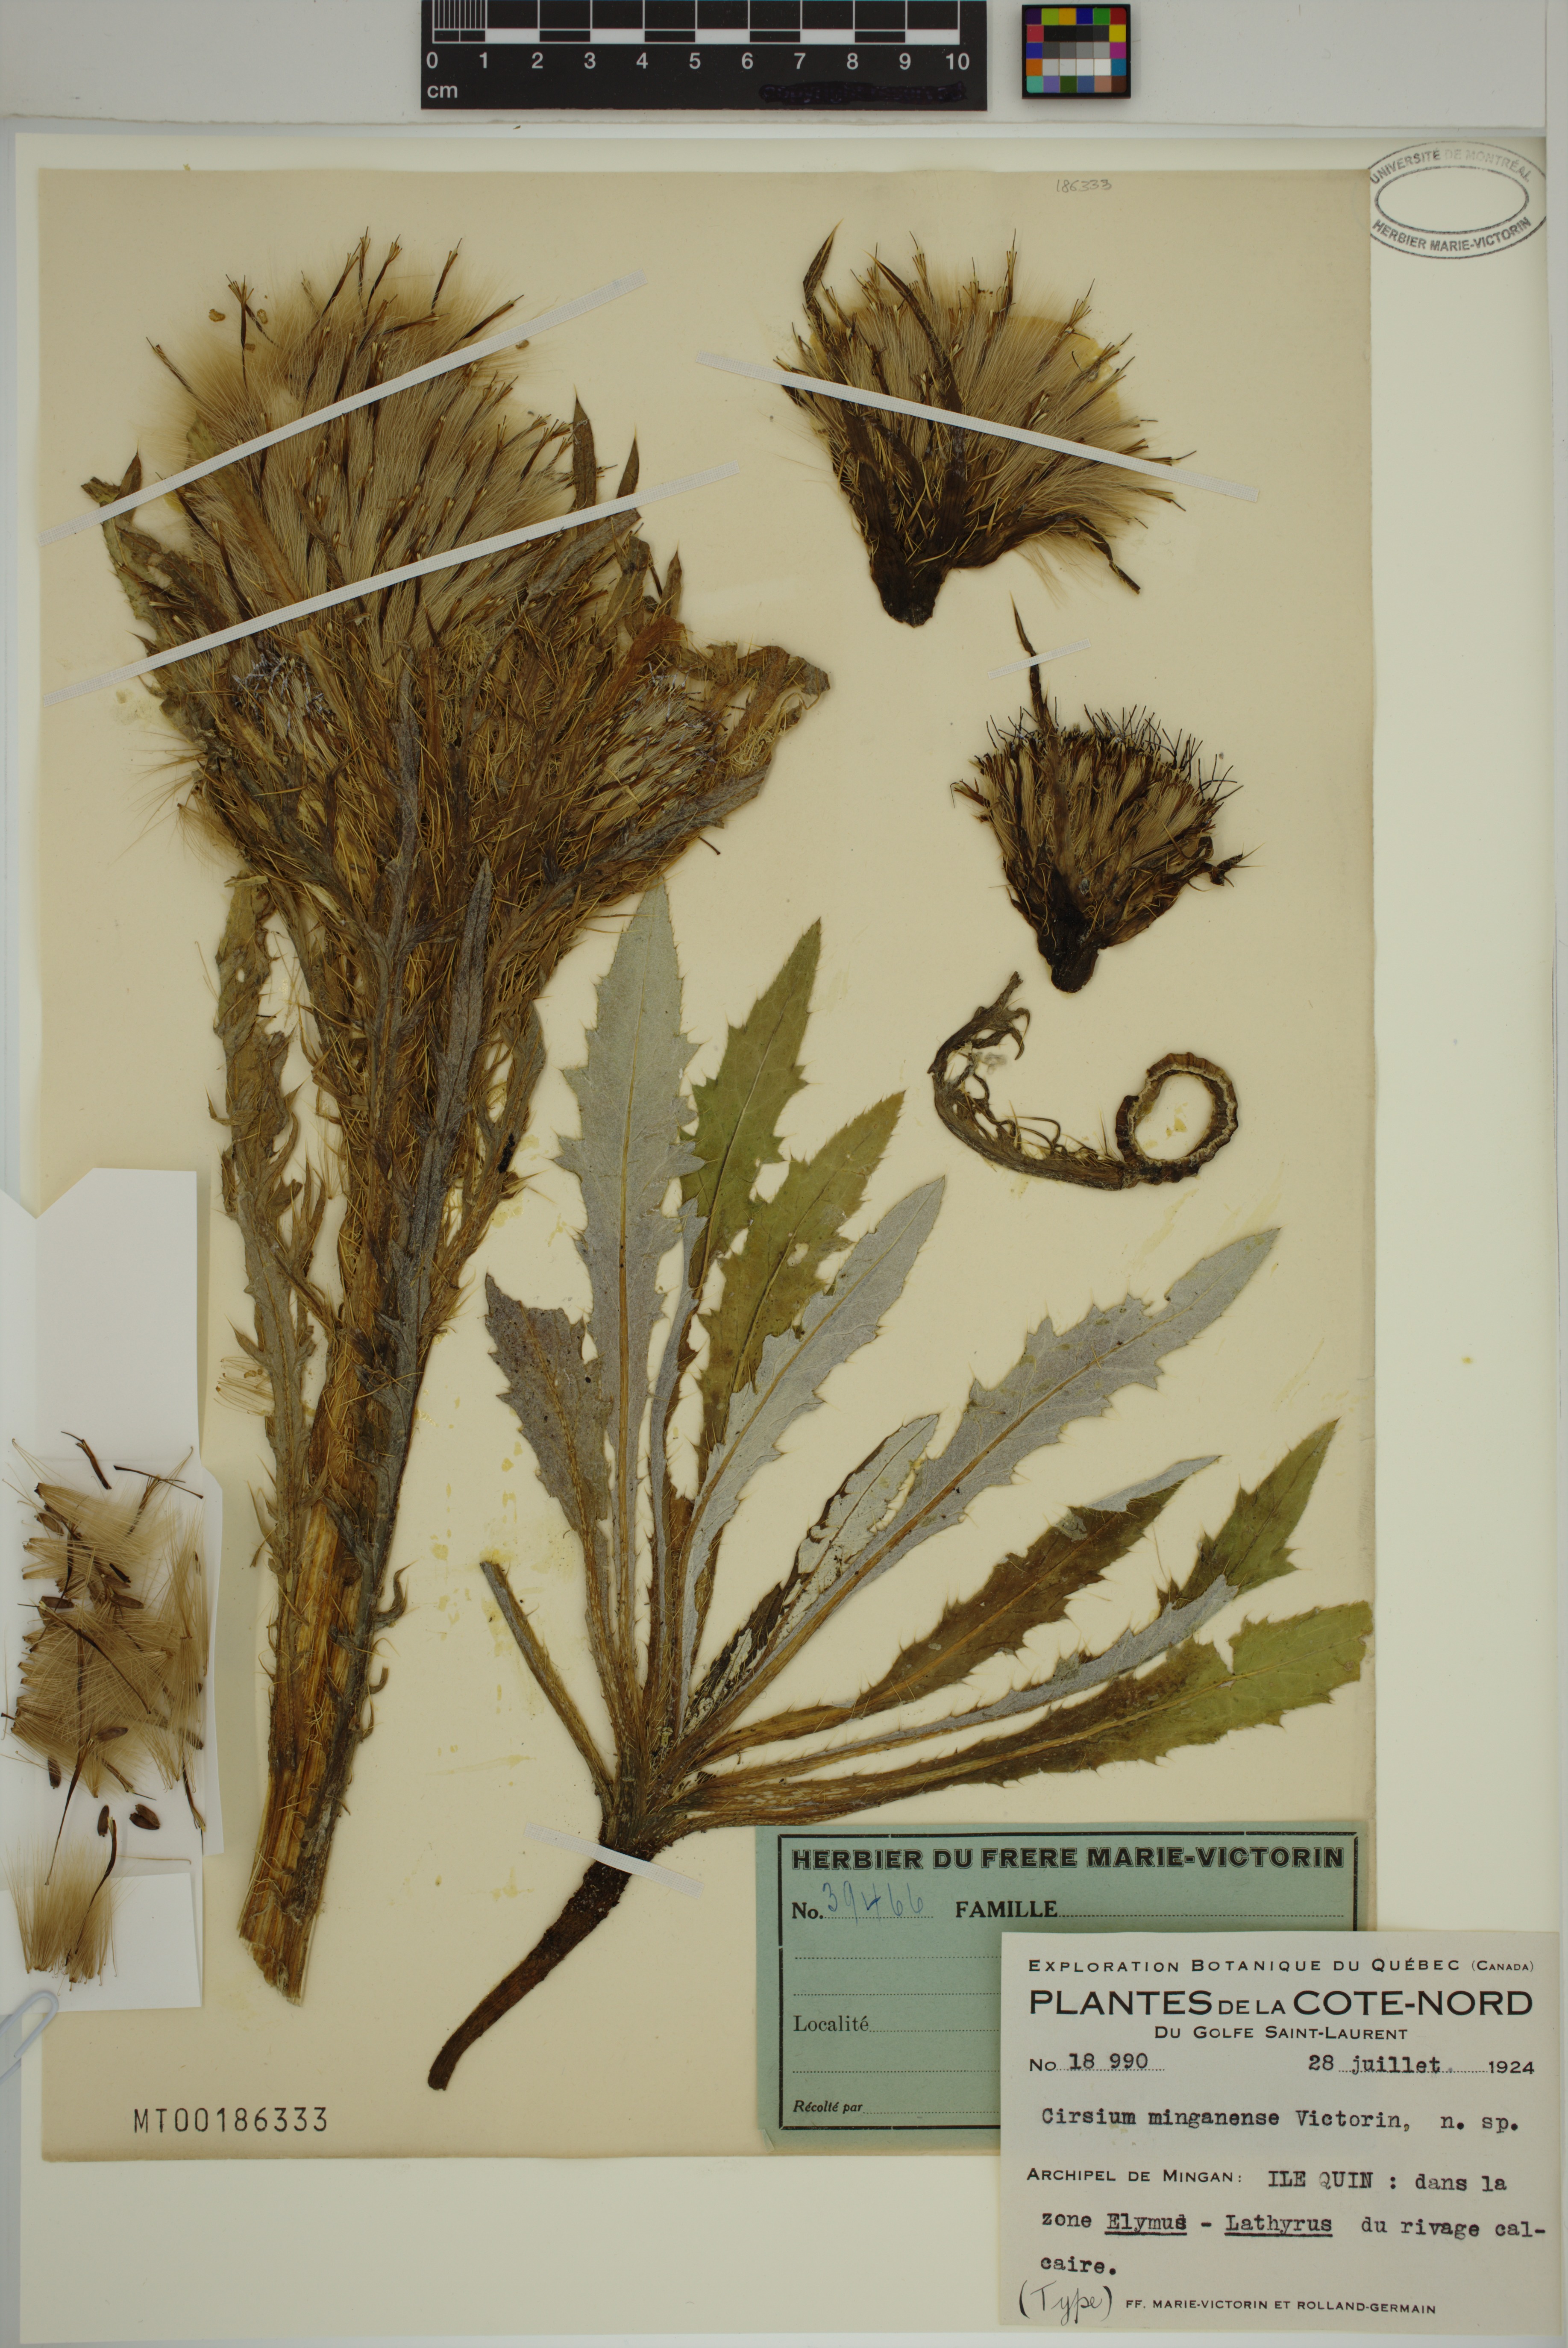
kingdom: Plantae
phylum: Tracheophyta
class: Magnoliopsida
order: Asterales
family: Asteraceae
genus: Cirsium
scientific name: Cirsium scariosum
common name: Meadow thistle
